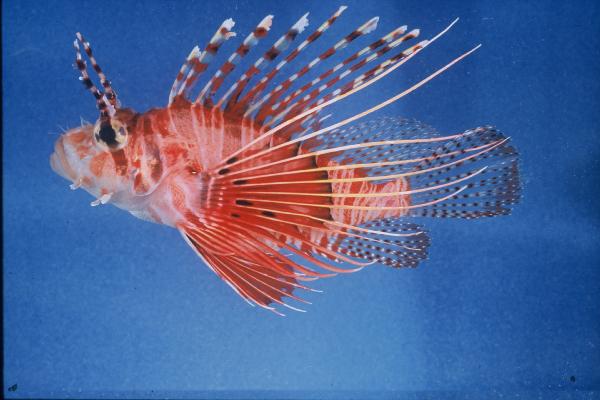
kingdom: Animalia
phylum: Chordata
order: Scorpaeniformes
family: Scorpaenidae
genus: Pterois
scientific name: Pterois antennata
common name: Spotfin lionfish
